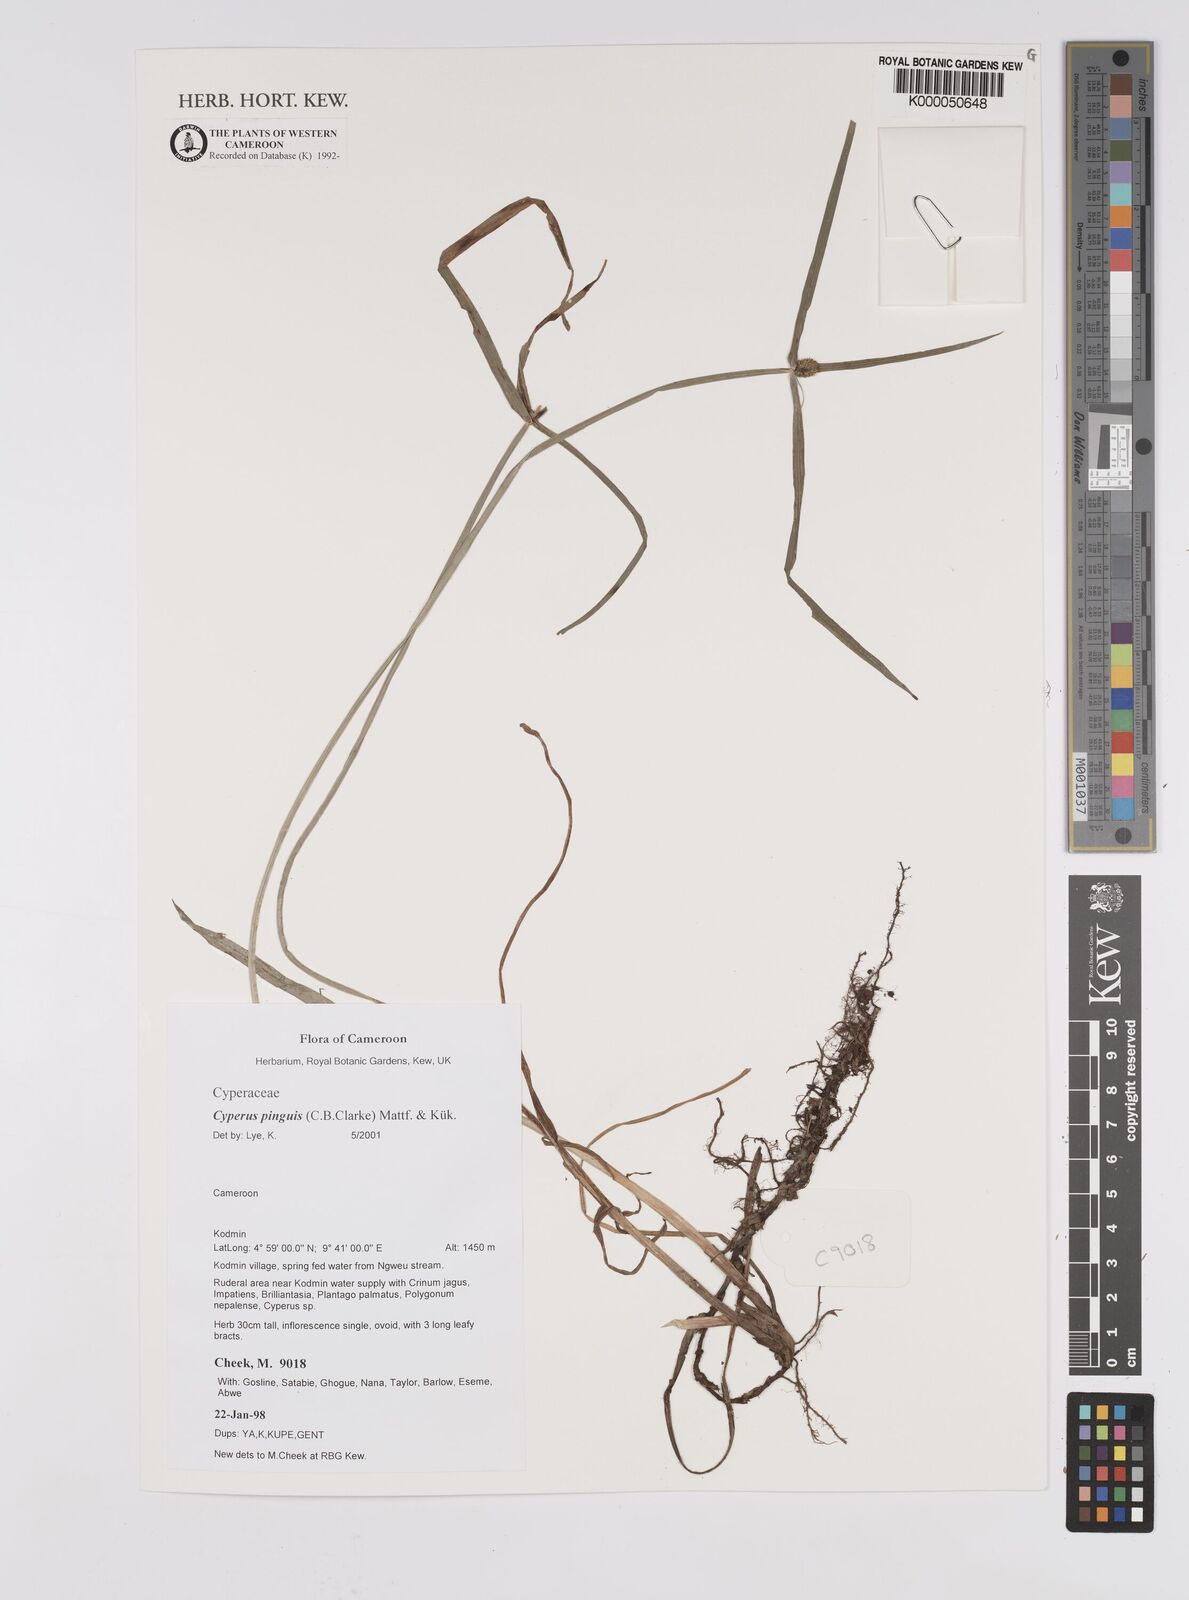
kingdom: Plantae
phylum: Tracheophyta
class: Liliopsida
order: Poales
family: Cyperaceae
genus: Cyperus
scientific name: Cyperus
